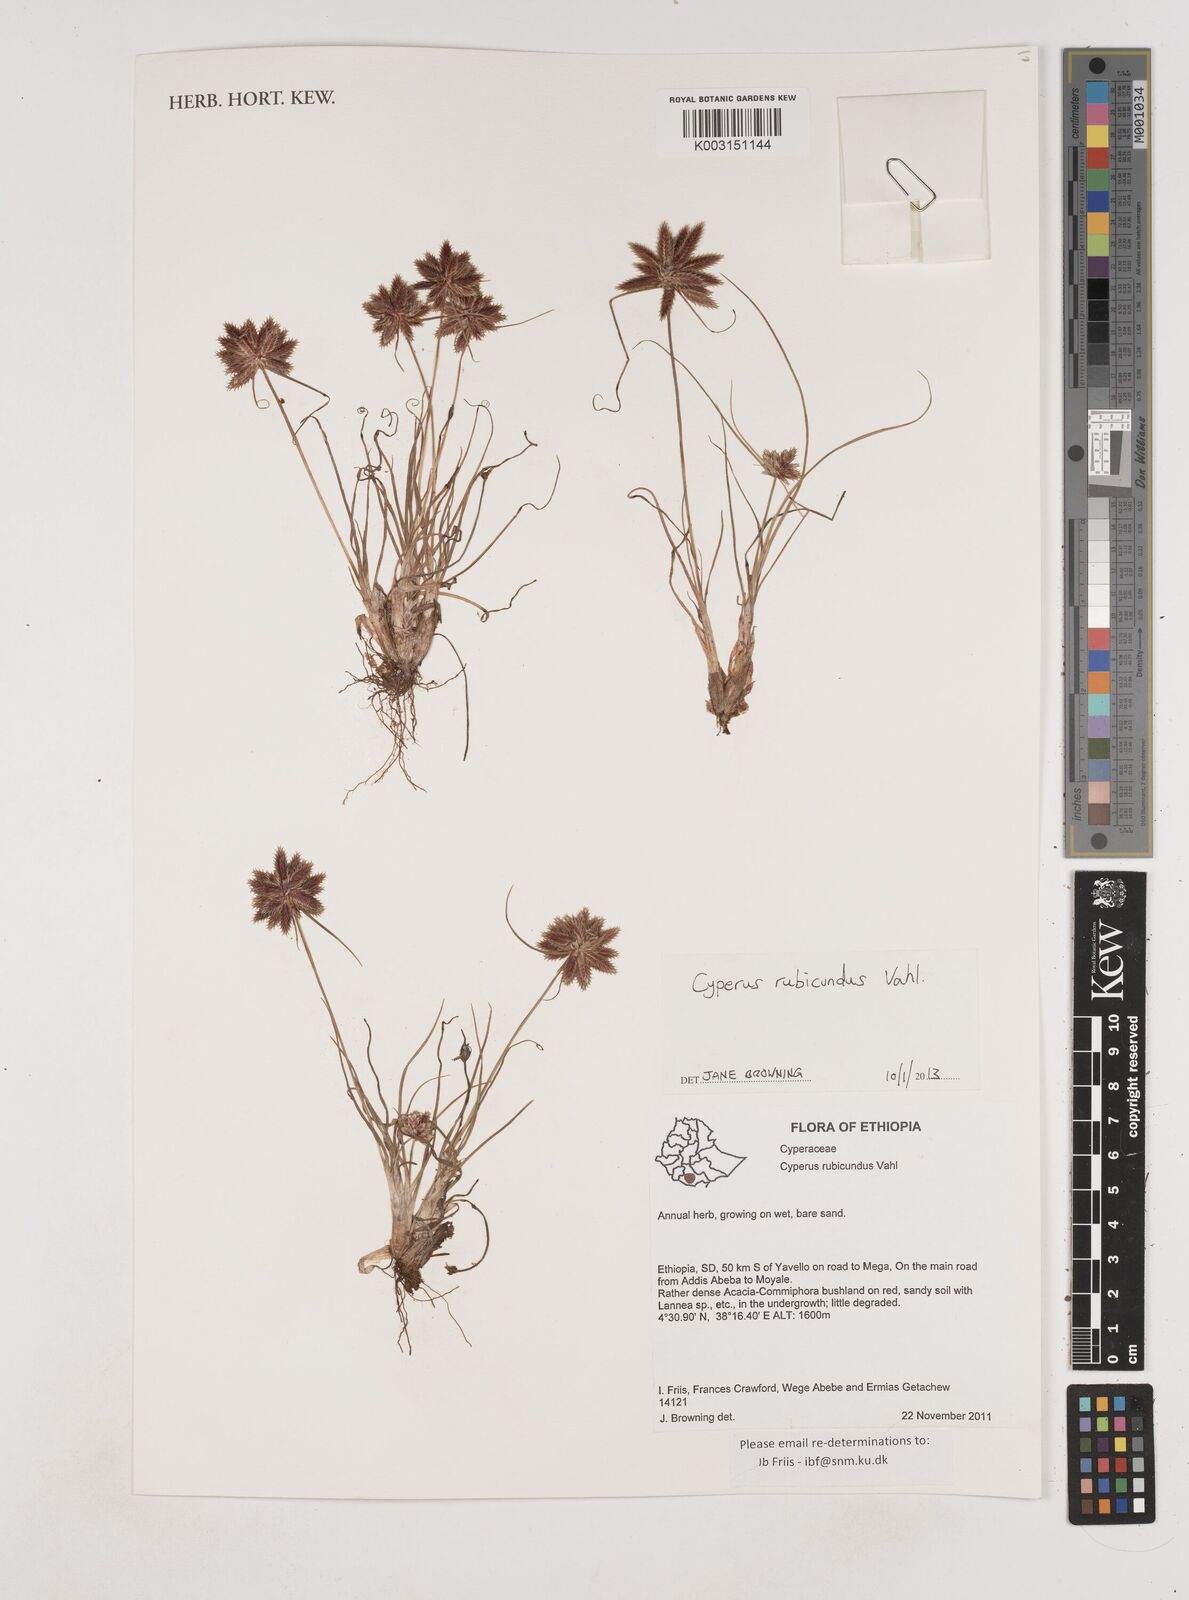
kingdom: Plantae
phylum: Tracheophyta
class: Liliopsida
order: Poales
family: Cyperaceae
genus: Cyperus
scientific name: Cyperus rubicundus
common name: Coco-grass
